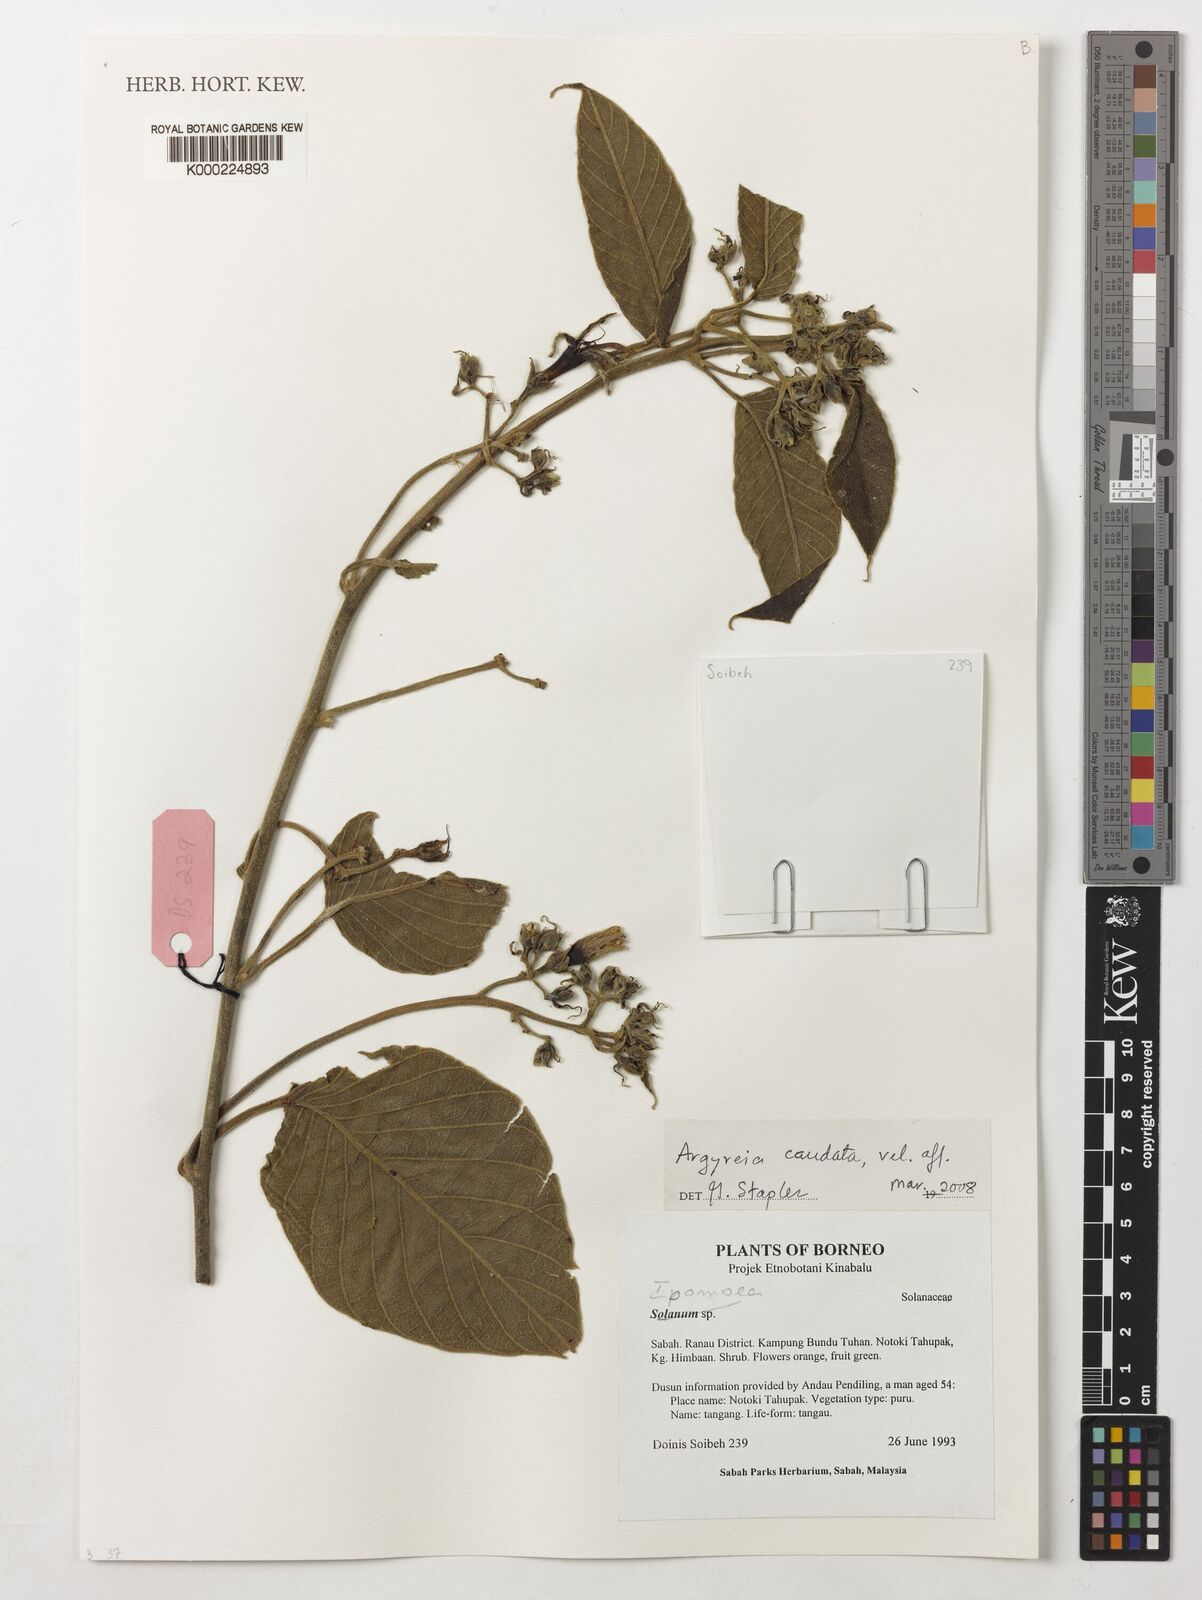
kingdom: Plantae
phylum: Tracheophyta
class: Magnoliopsida
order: Solanales
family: Convolvulaceae
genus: Argyreia
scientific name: Argyreia
